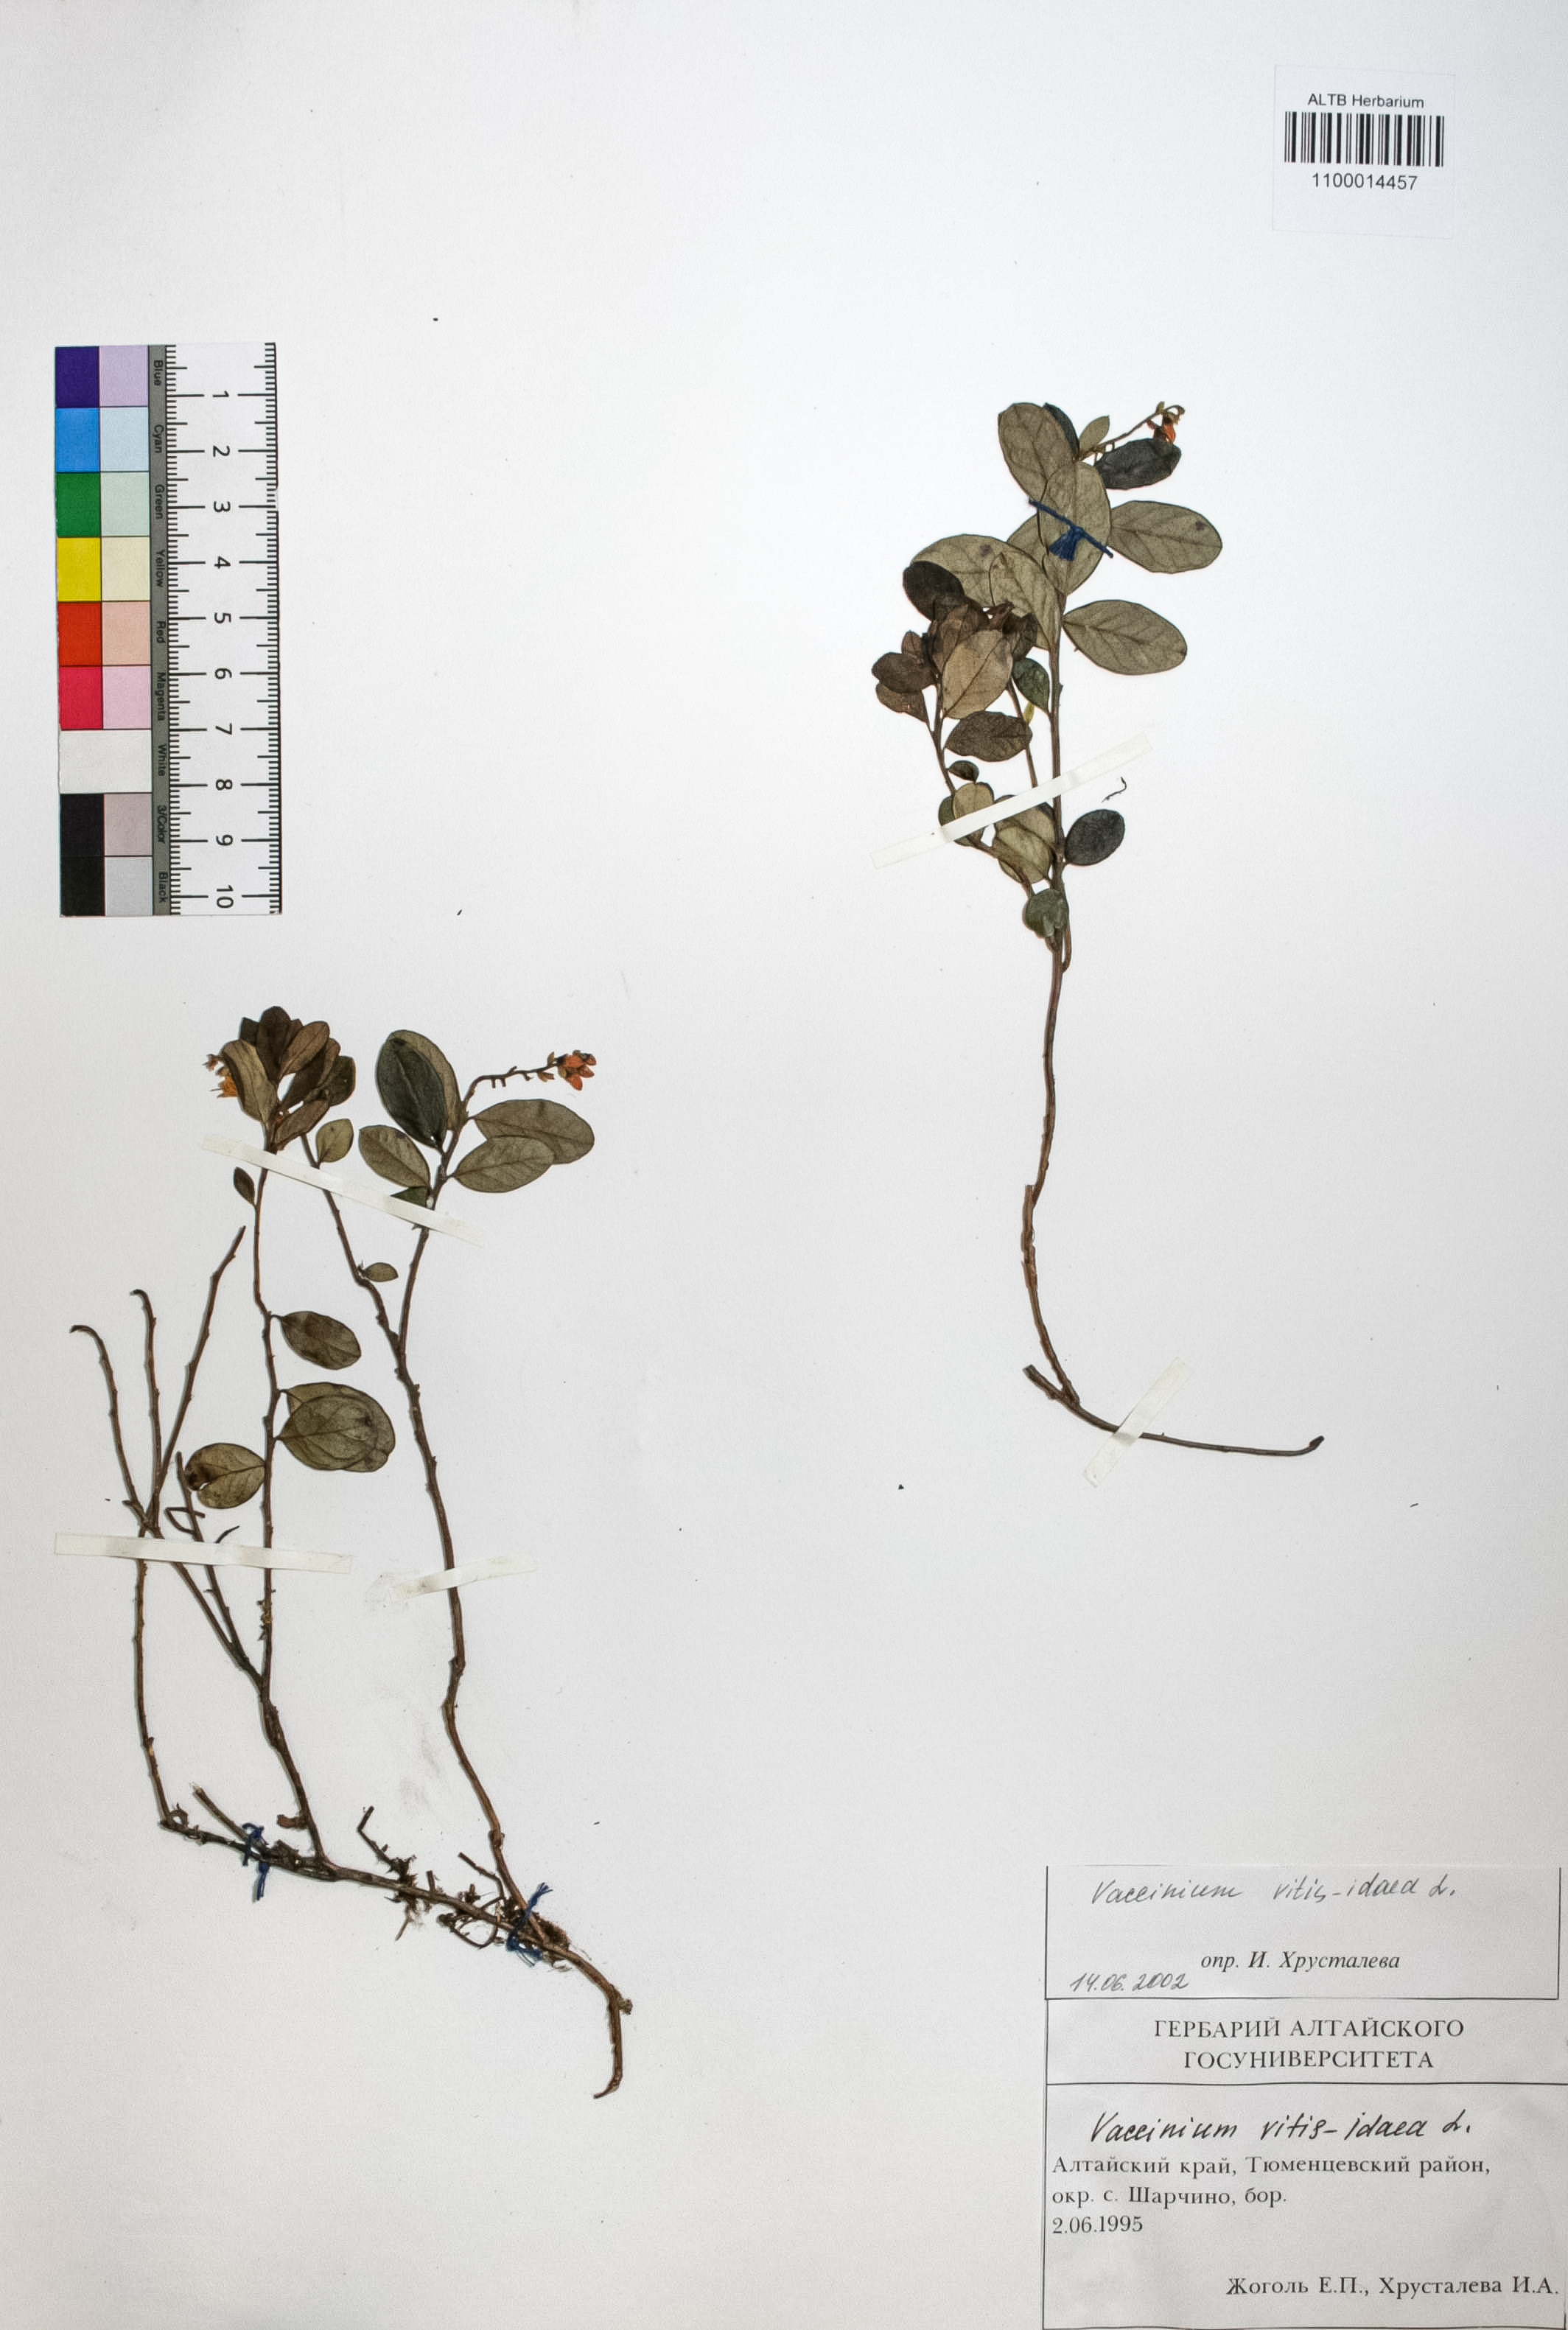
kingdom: Plantae
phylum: Tracheophyta
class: Magnoliopsida
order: Ericales
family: Ericaceae
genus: Vaccinium
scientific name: Vaccinium vitis-idaea
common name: Cowberry
